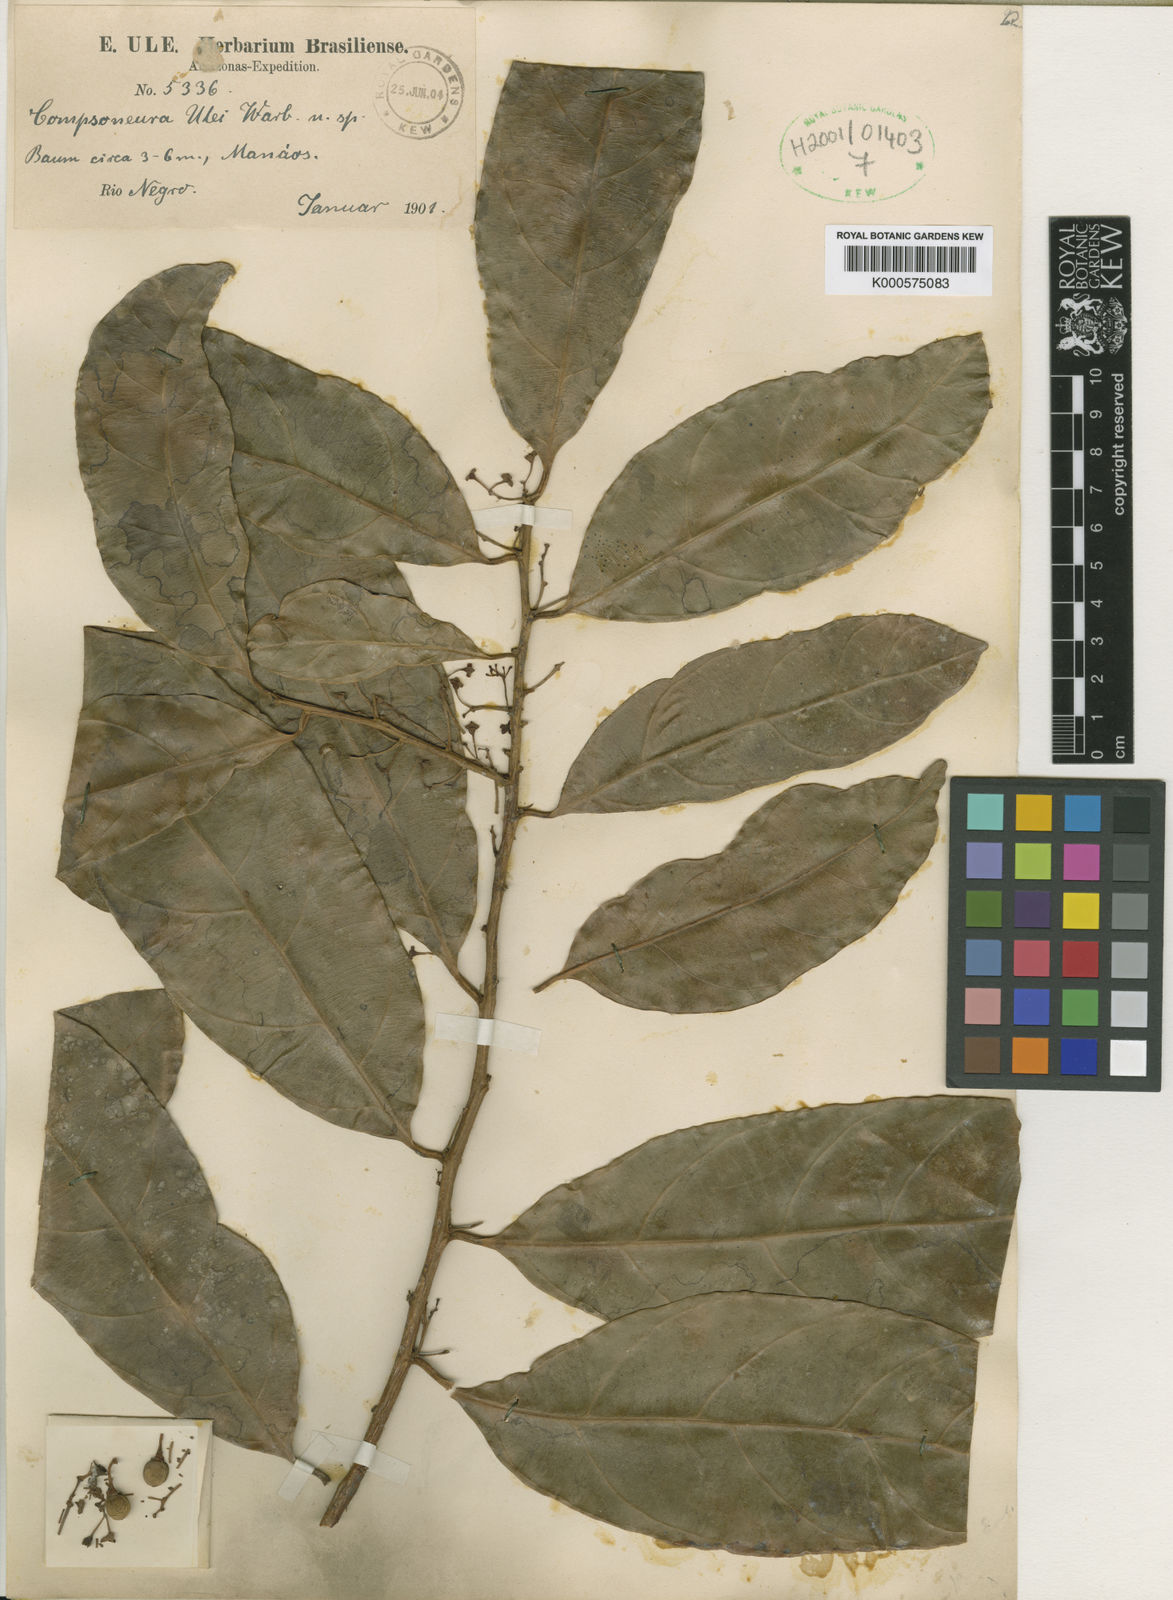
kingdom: Plantae
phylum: Tracheophyta
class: Magnoliopsida
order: Magnoliales
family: Myristicaceae
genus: Compsoneura
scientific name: Compsoneura ulei
